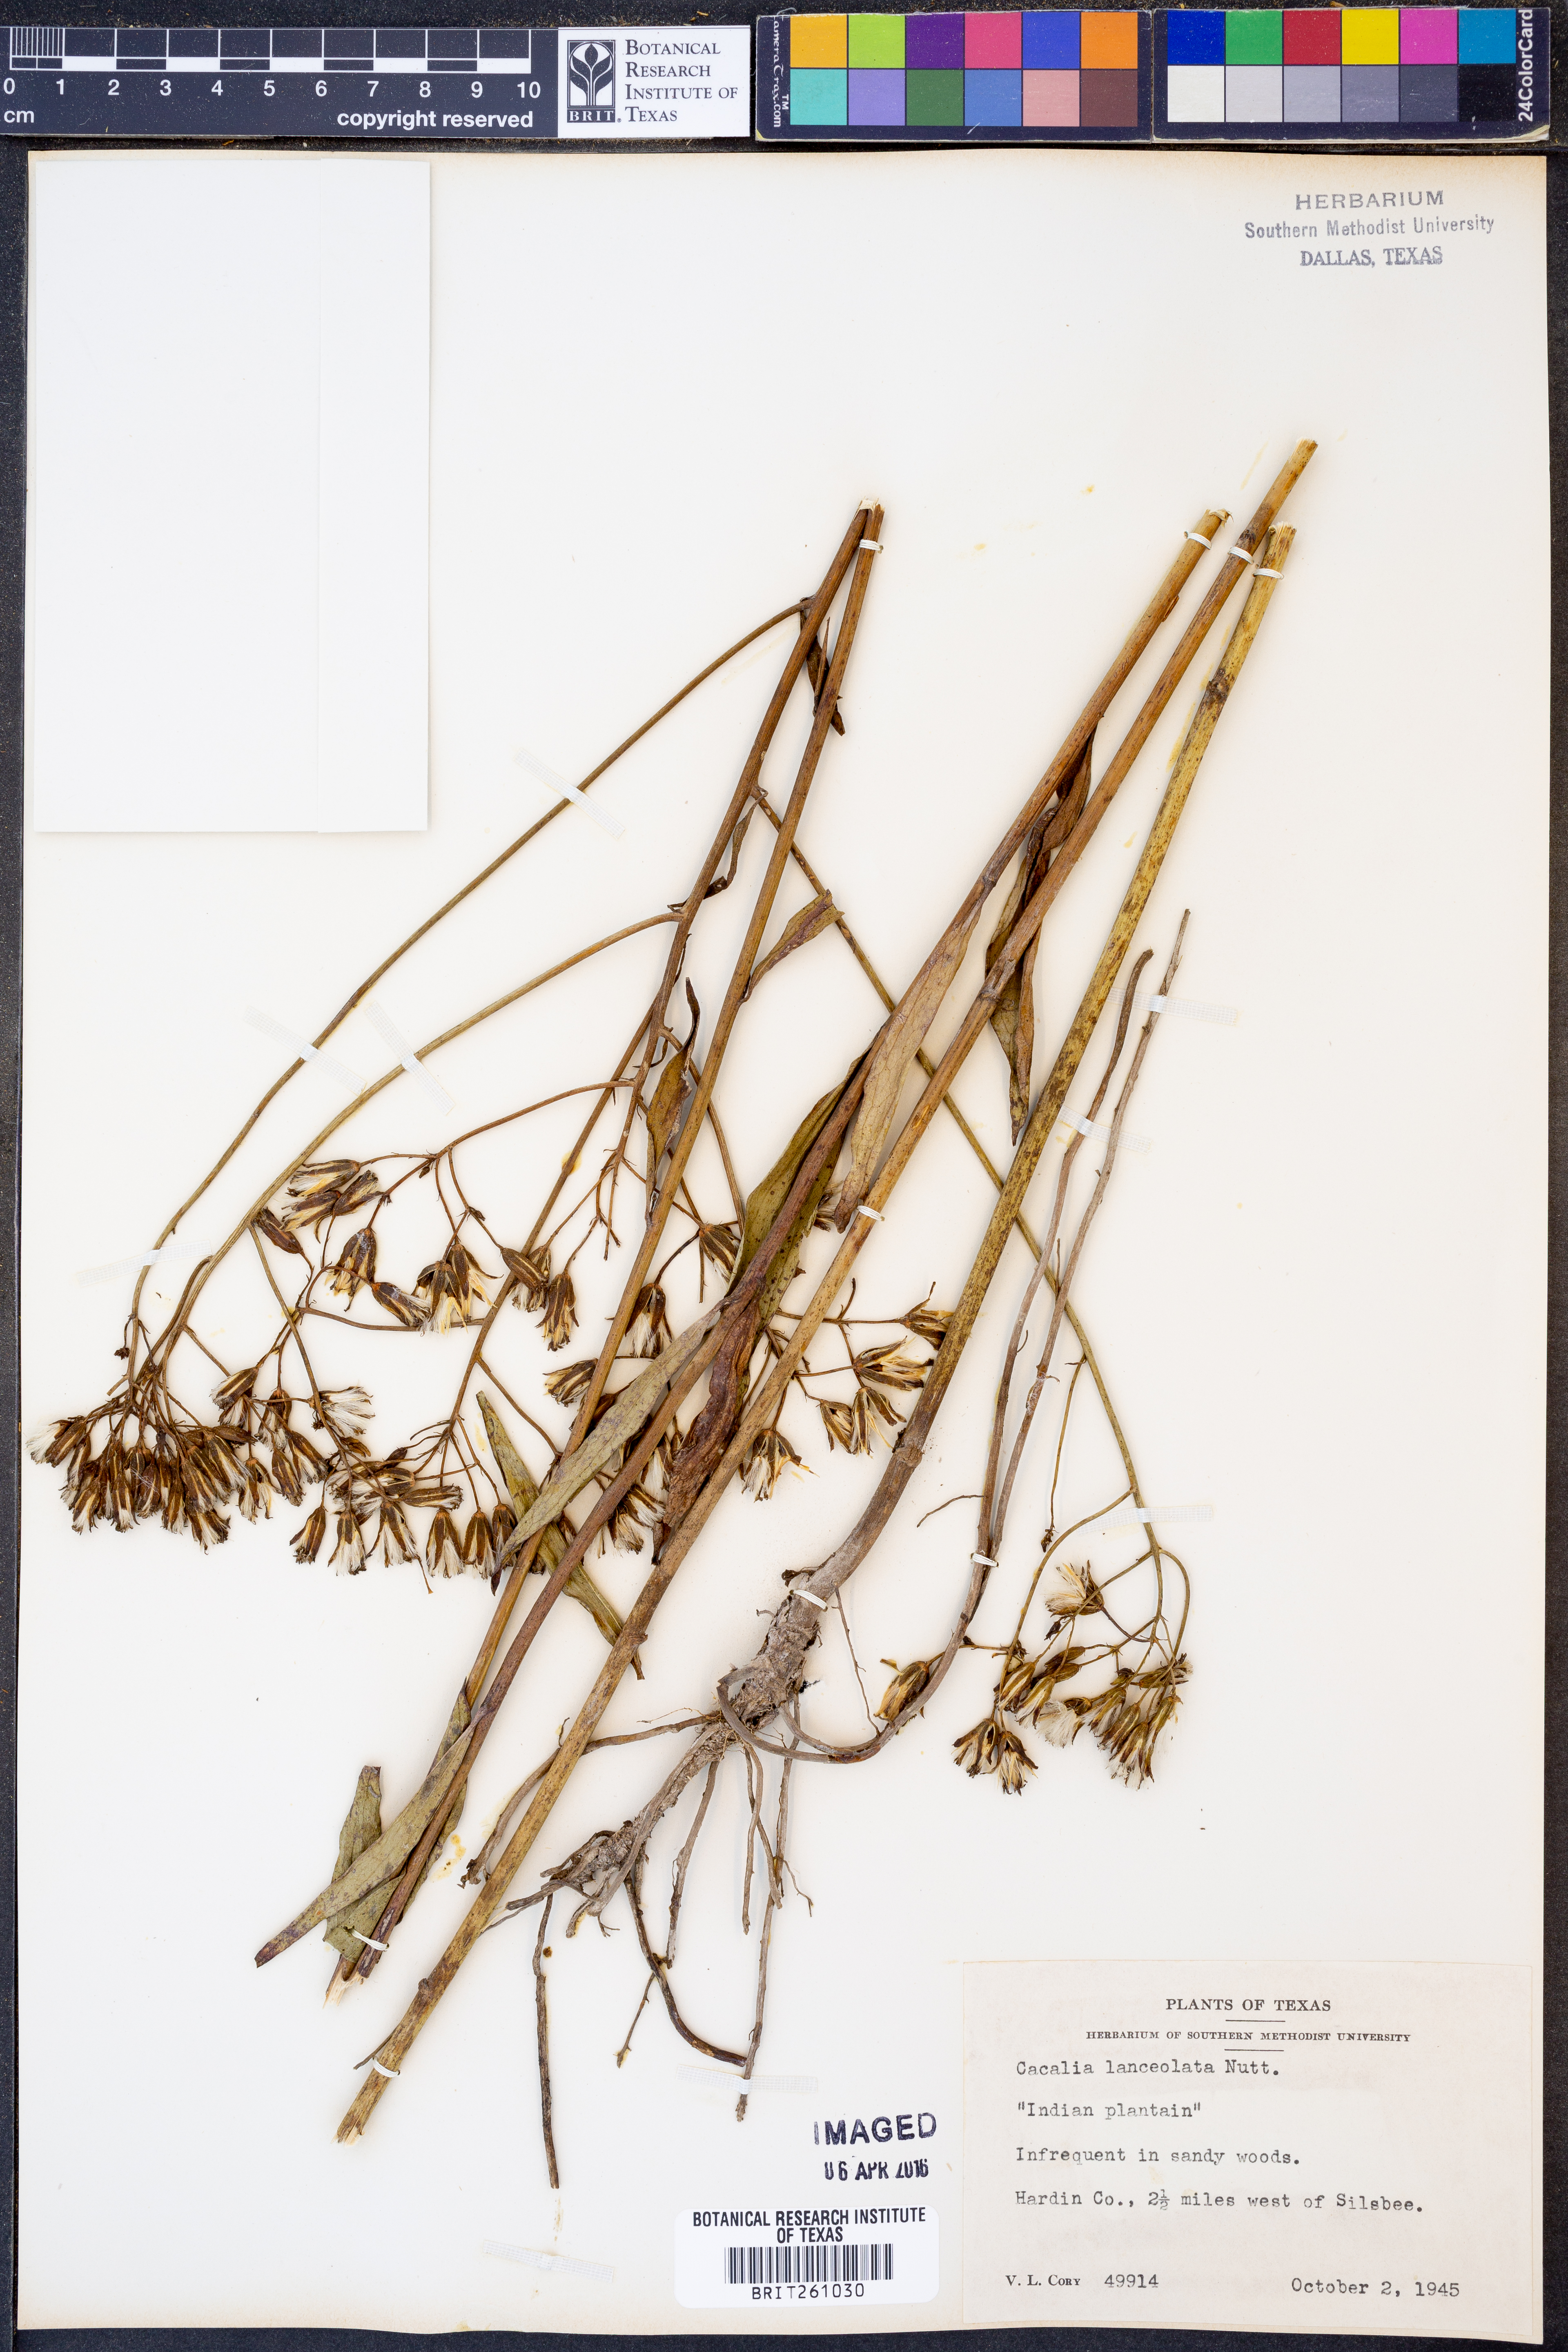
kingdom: Plantae
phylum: Tracheophyta
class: Magnoliopsida
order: Asterales
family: Asteraceae
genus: Arnoglossum
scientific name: Arnoglossum ovatum
